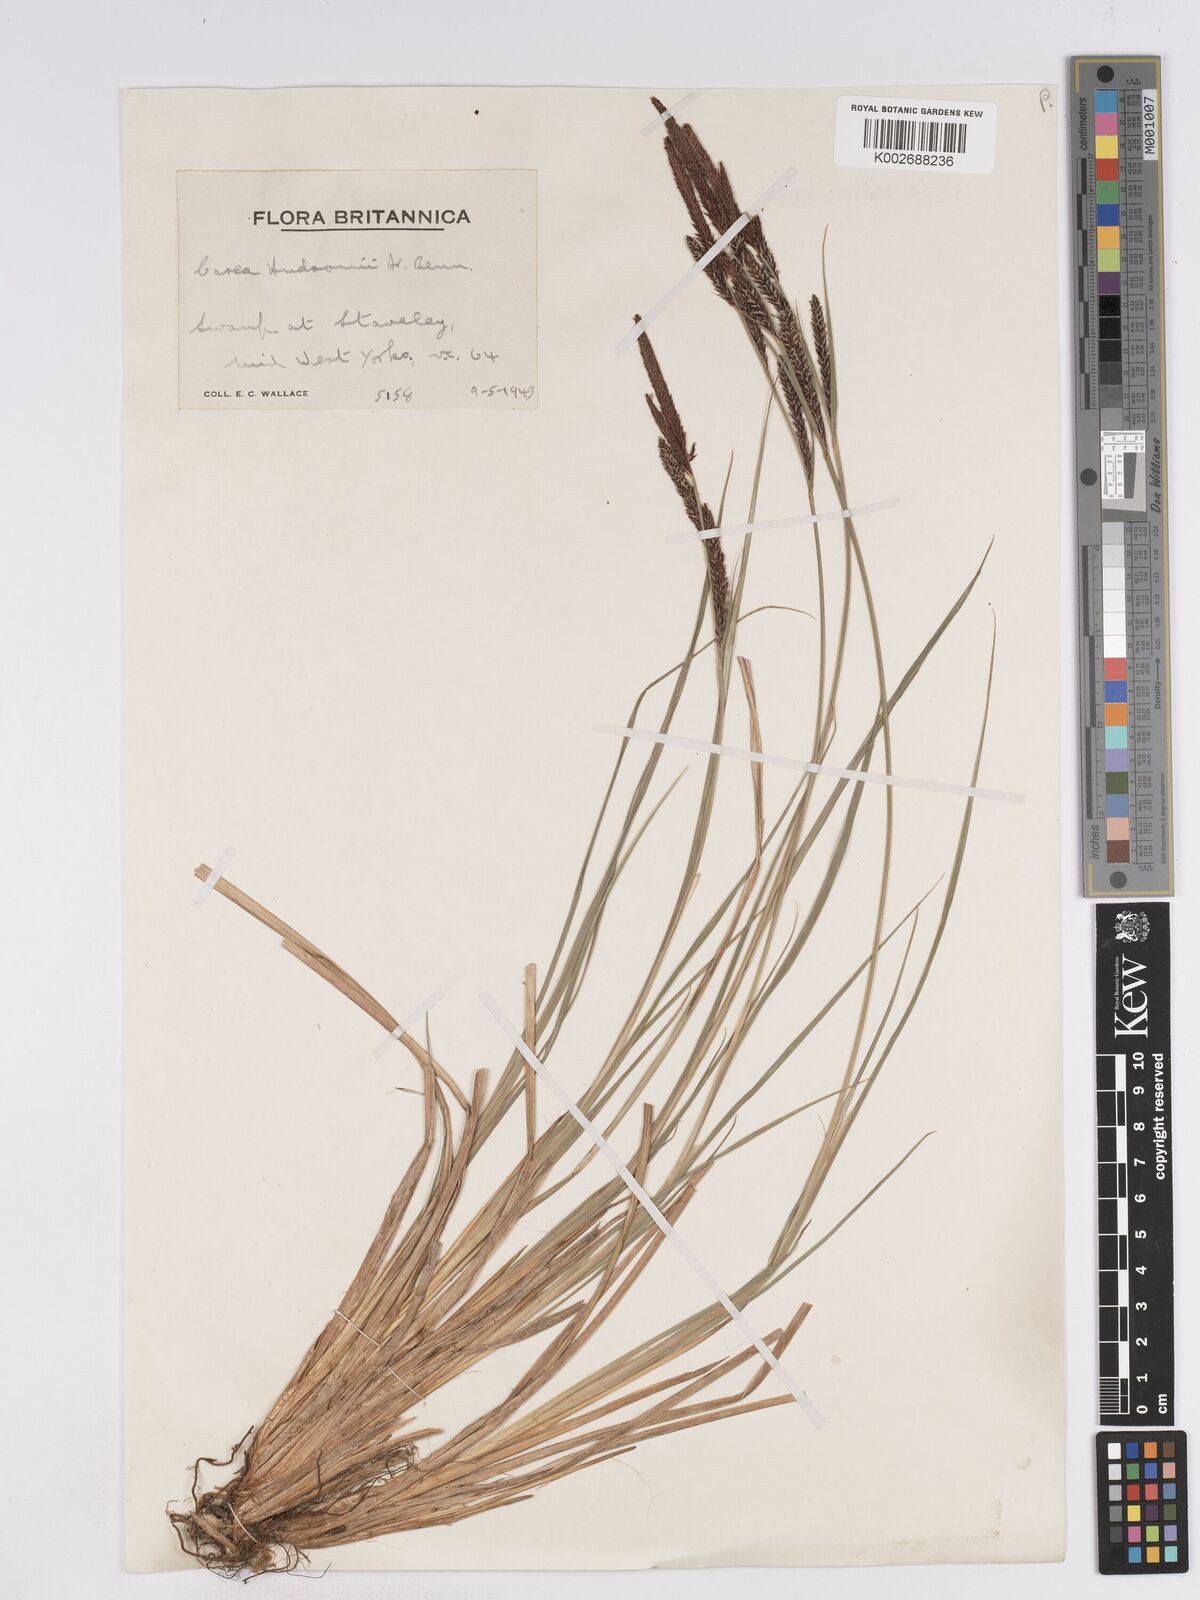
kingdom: Plantae
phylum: Tracheophyta
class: Liliopsida
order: Poales
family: Cyperaceae
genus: Carex
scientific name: Carex elata
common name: Tufted sedge
